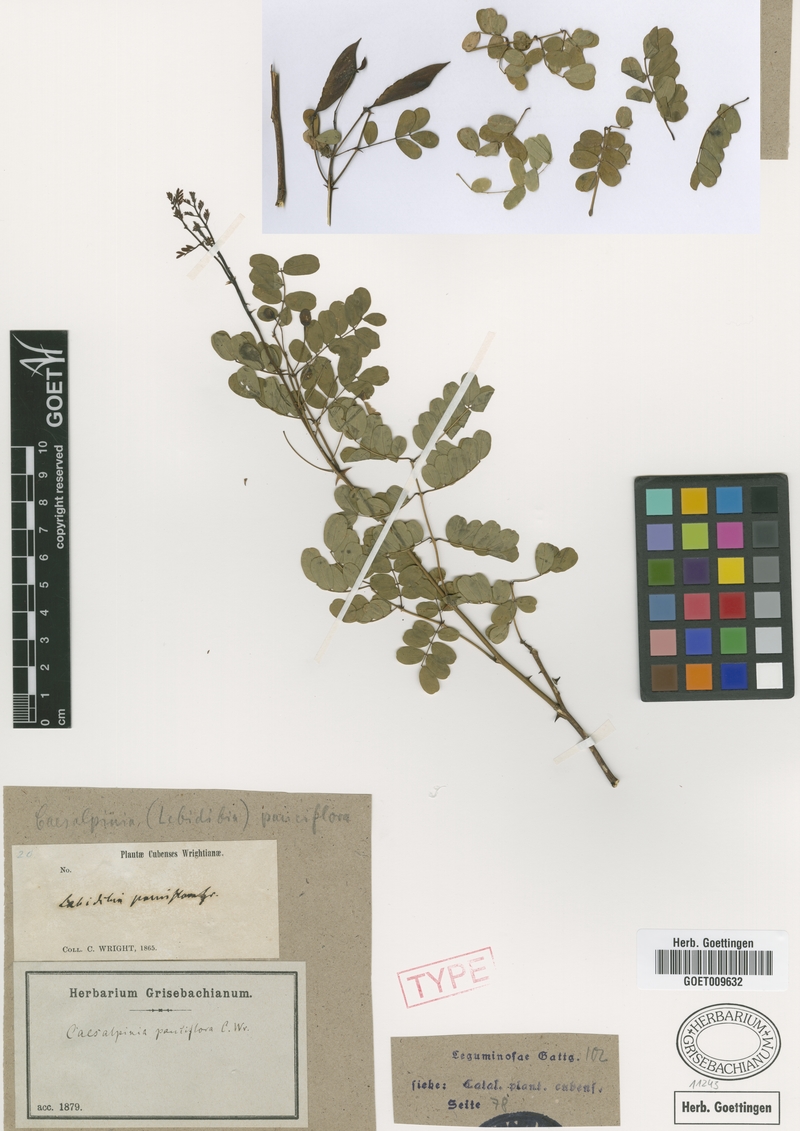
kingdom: Plantae
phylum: Tracheophyta
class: Magnoliopsida
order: Fabales
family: Fabaceae
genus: Denisophytum
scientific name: Denisophytum pauciflorum
